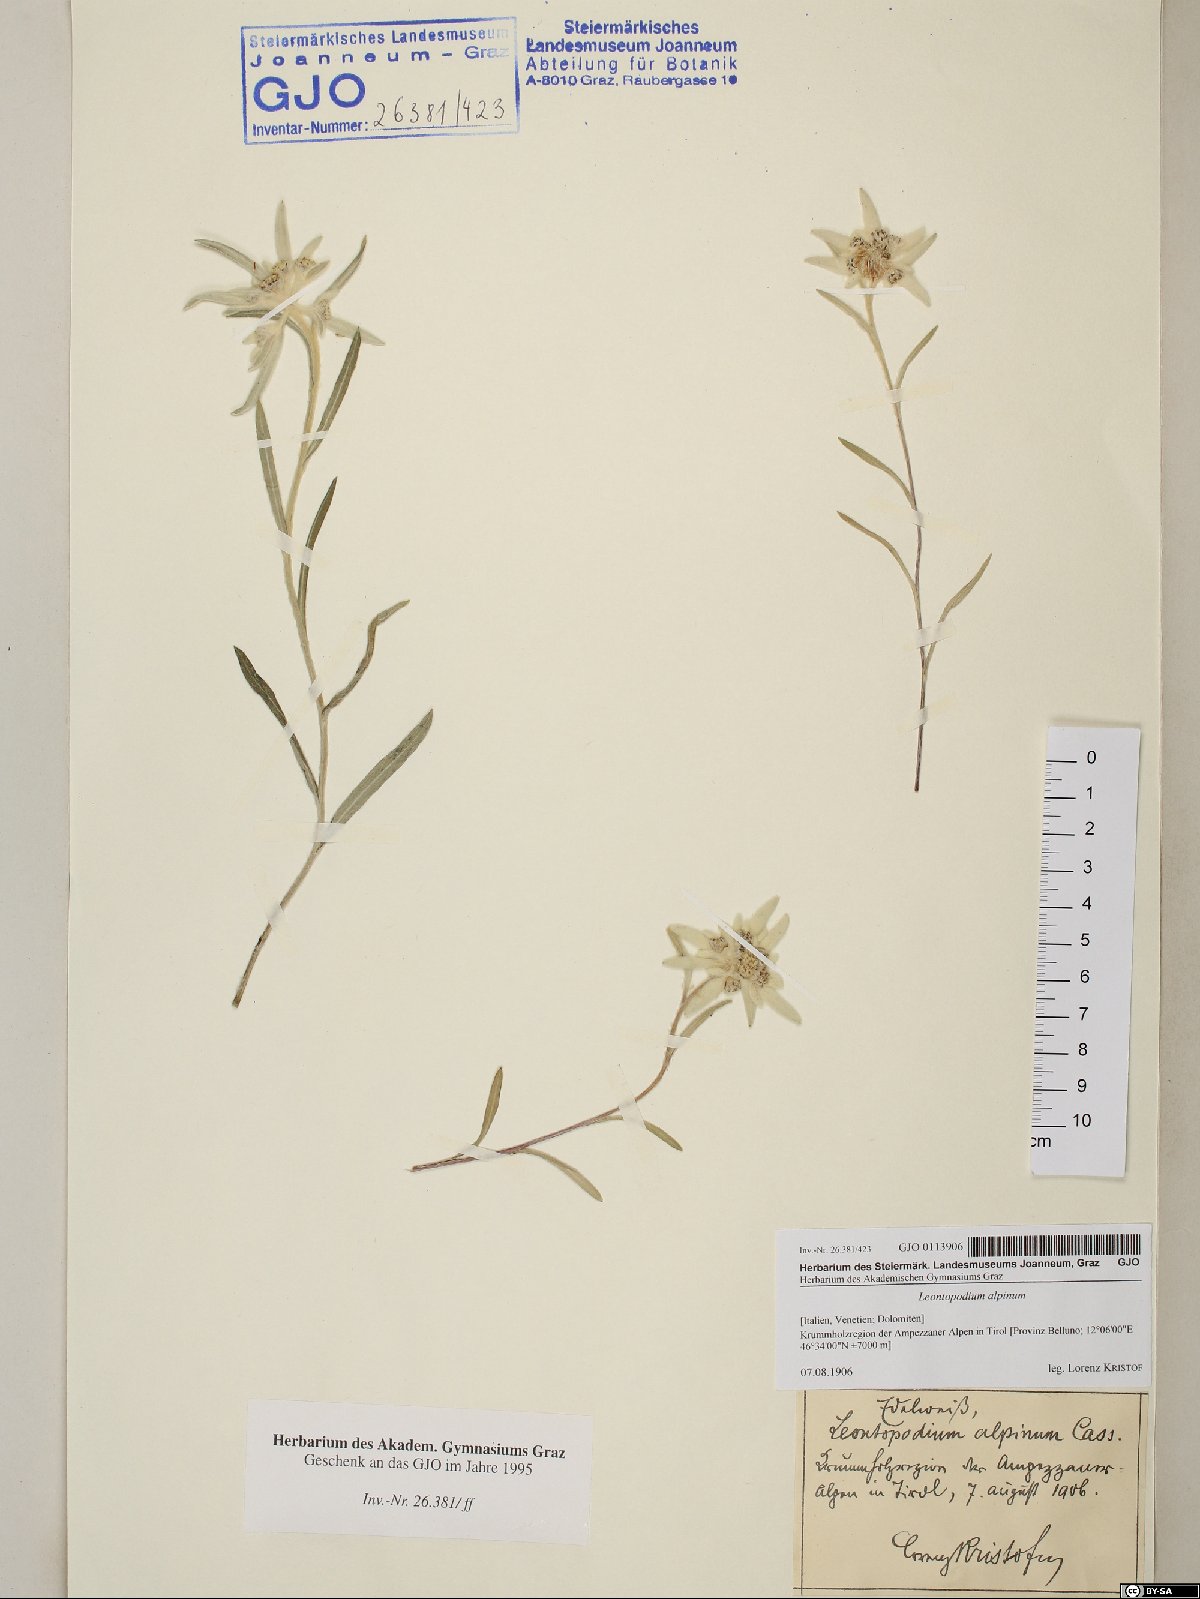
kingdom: Plantae
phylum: Tracheophyta
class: Magnoliopsida
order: Asterales
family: Asteraceae
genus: Leontopodium
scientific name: Leontopodium nivale
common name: Edelweiss
